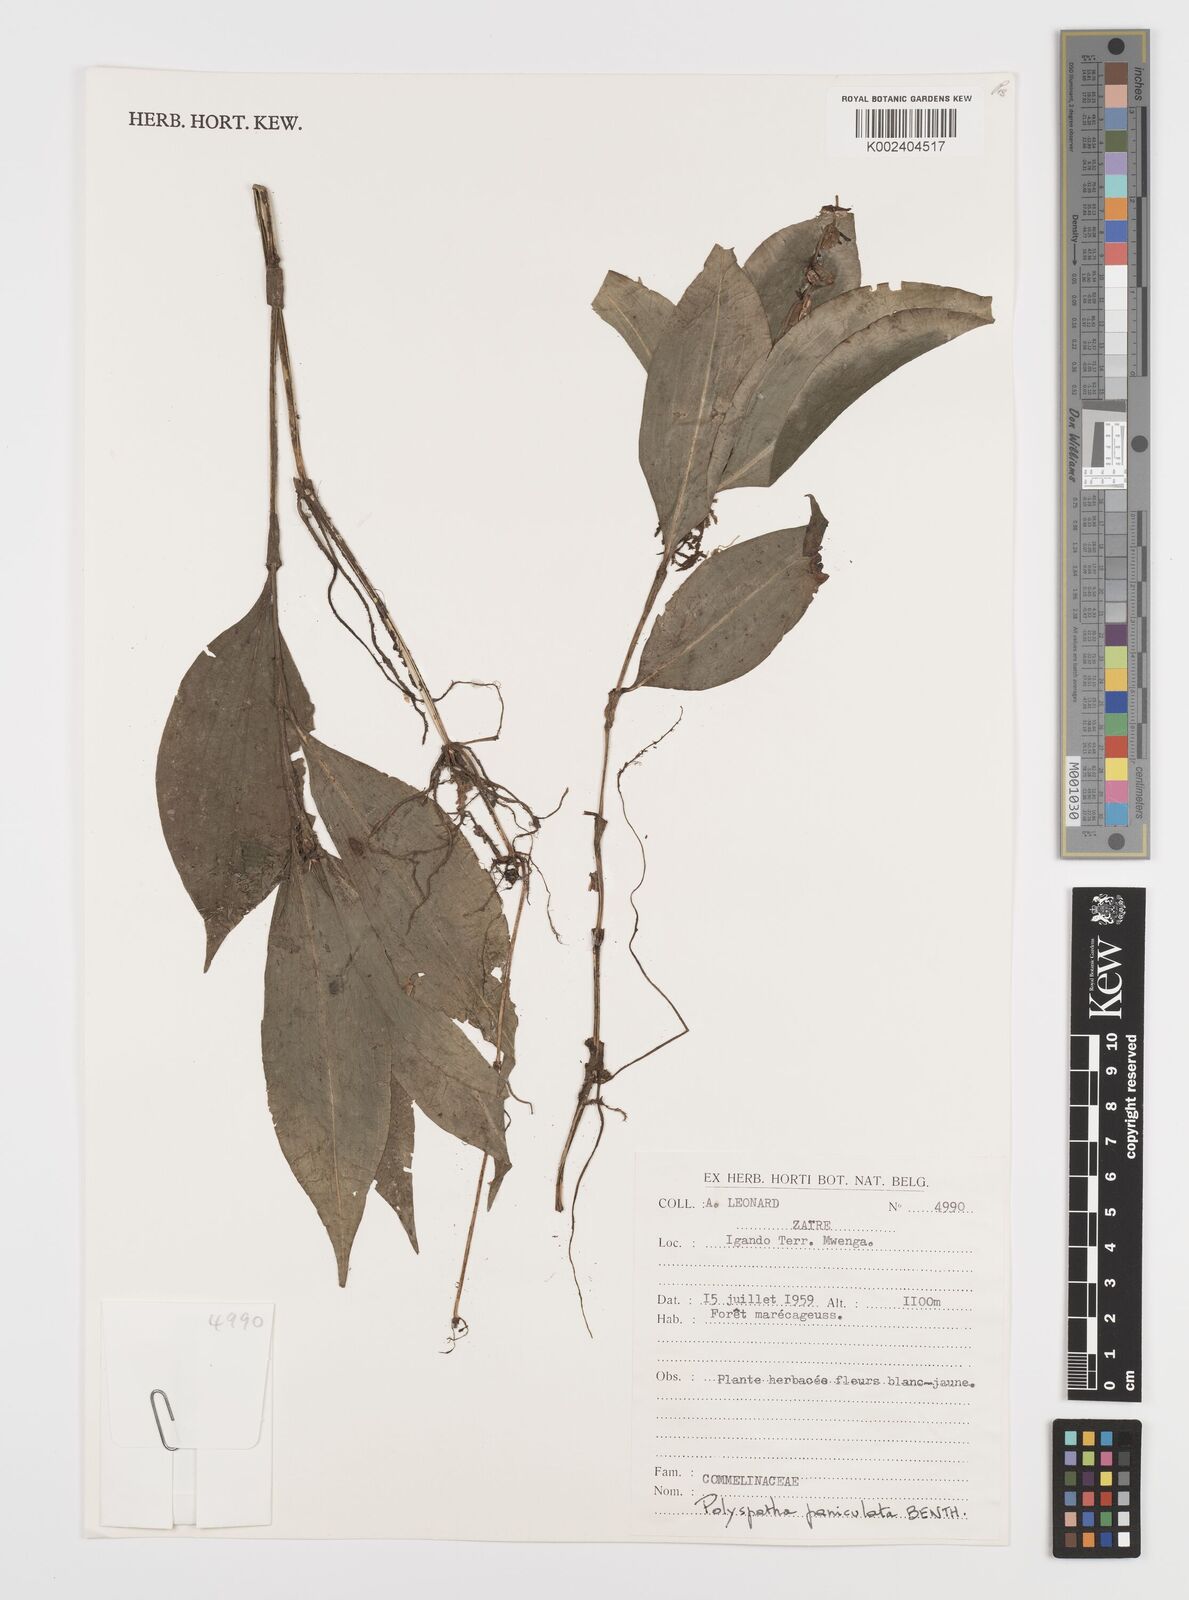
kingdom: Plantae
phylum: Tracheophyta
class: Liliopsida
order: Commelinales
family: Commelinaceae
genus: Polyspatha
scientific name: Polyspatha paniculata
